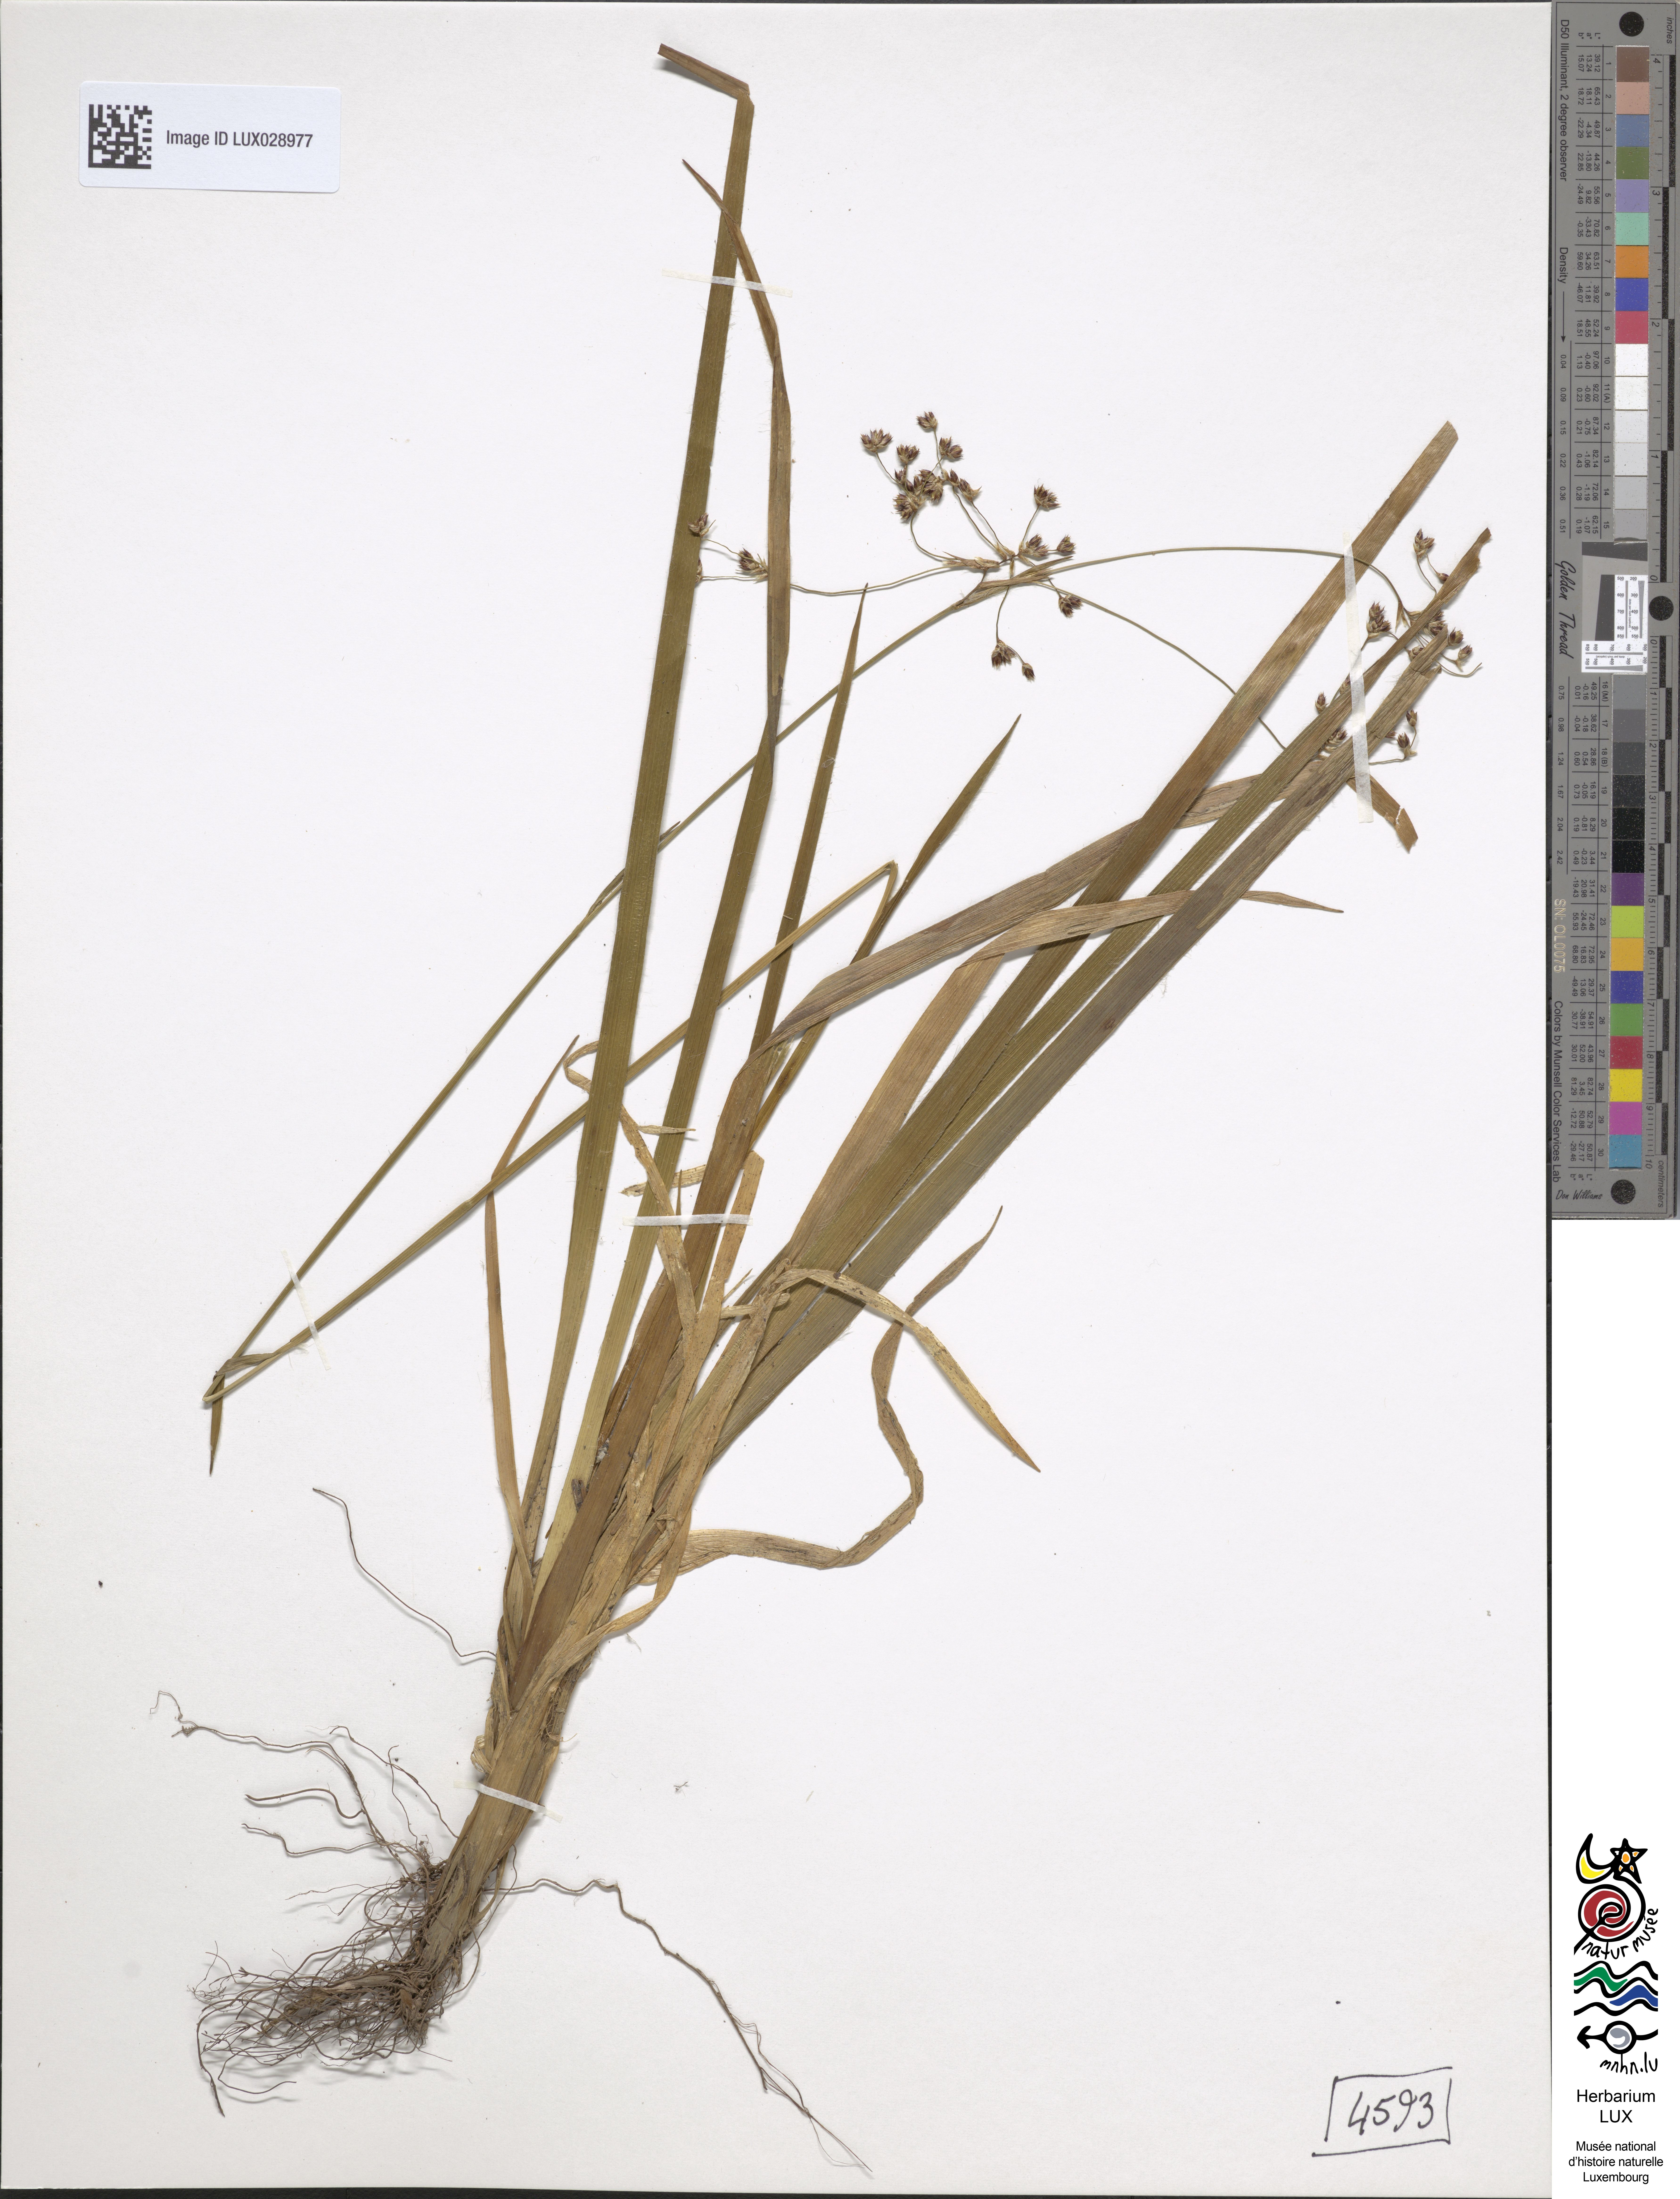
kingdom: Plantae
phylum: Tracheophyta
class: Liliopsida
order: Poales
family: Juncaceae
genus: Luzula
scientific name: Luzula sylvatica
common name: Great wood-rush
